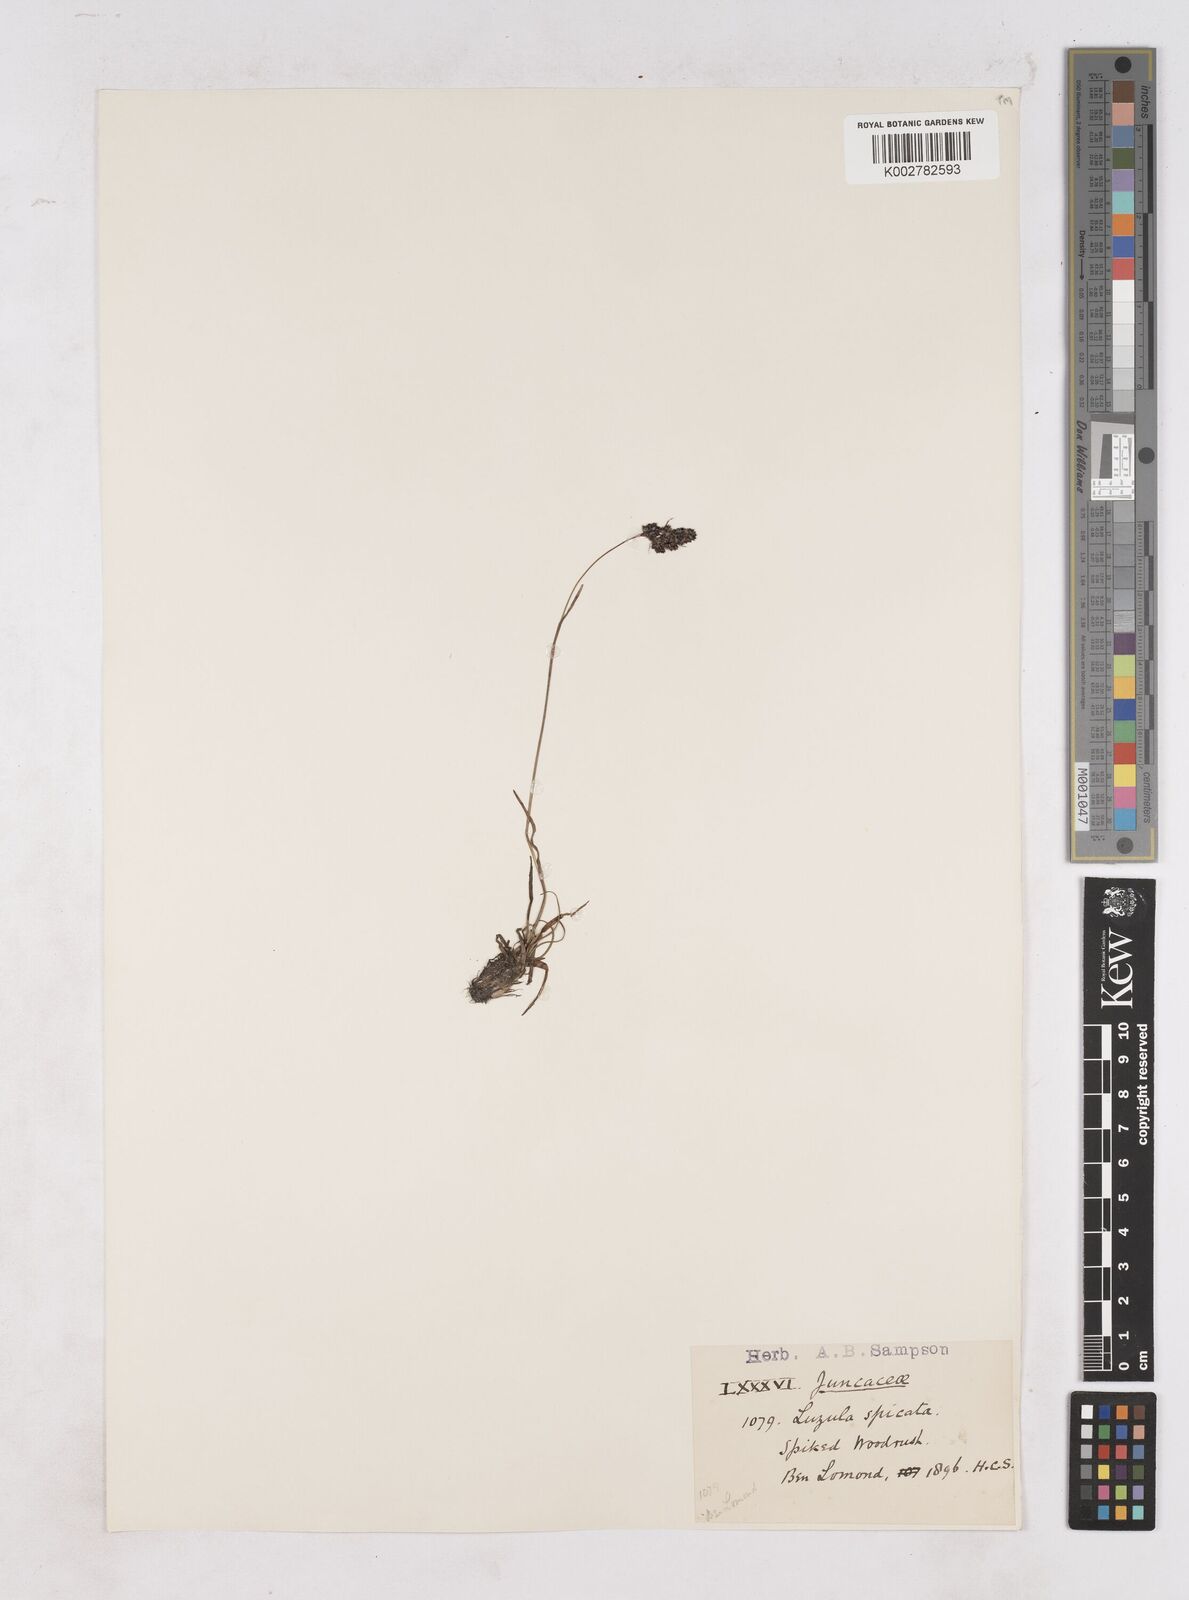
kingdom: Plantae
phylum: Tracheophyta
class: Liliopsida
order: Poales
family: Juncaceae
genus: Luzula
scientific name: Luzula spicata
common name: Spiked wood-rush
